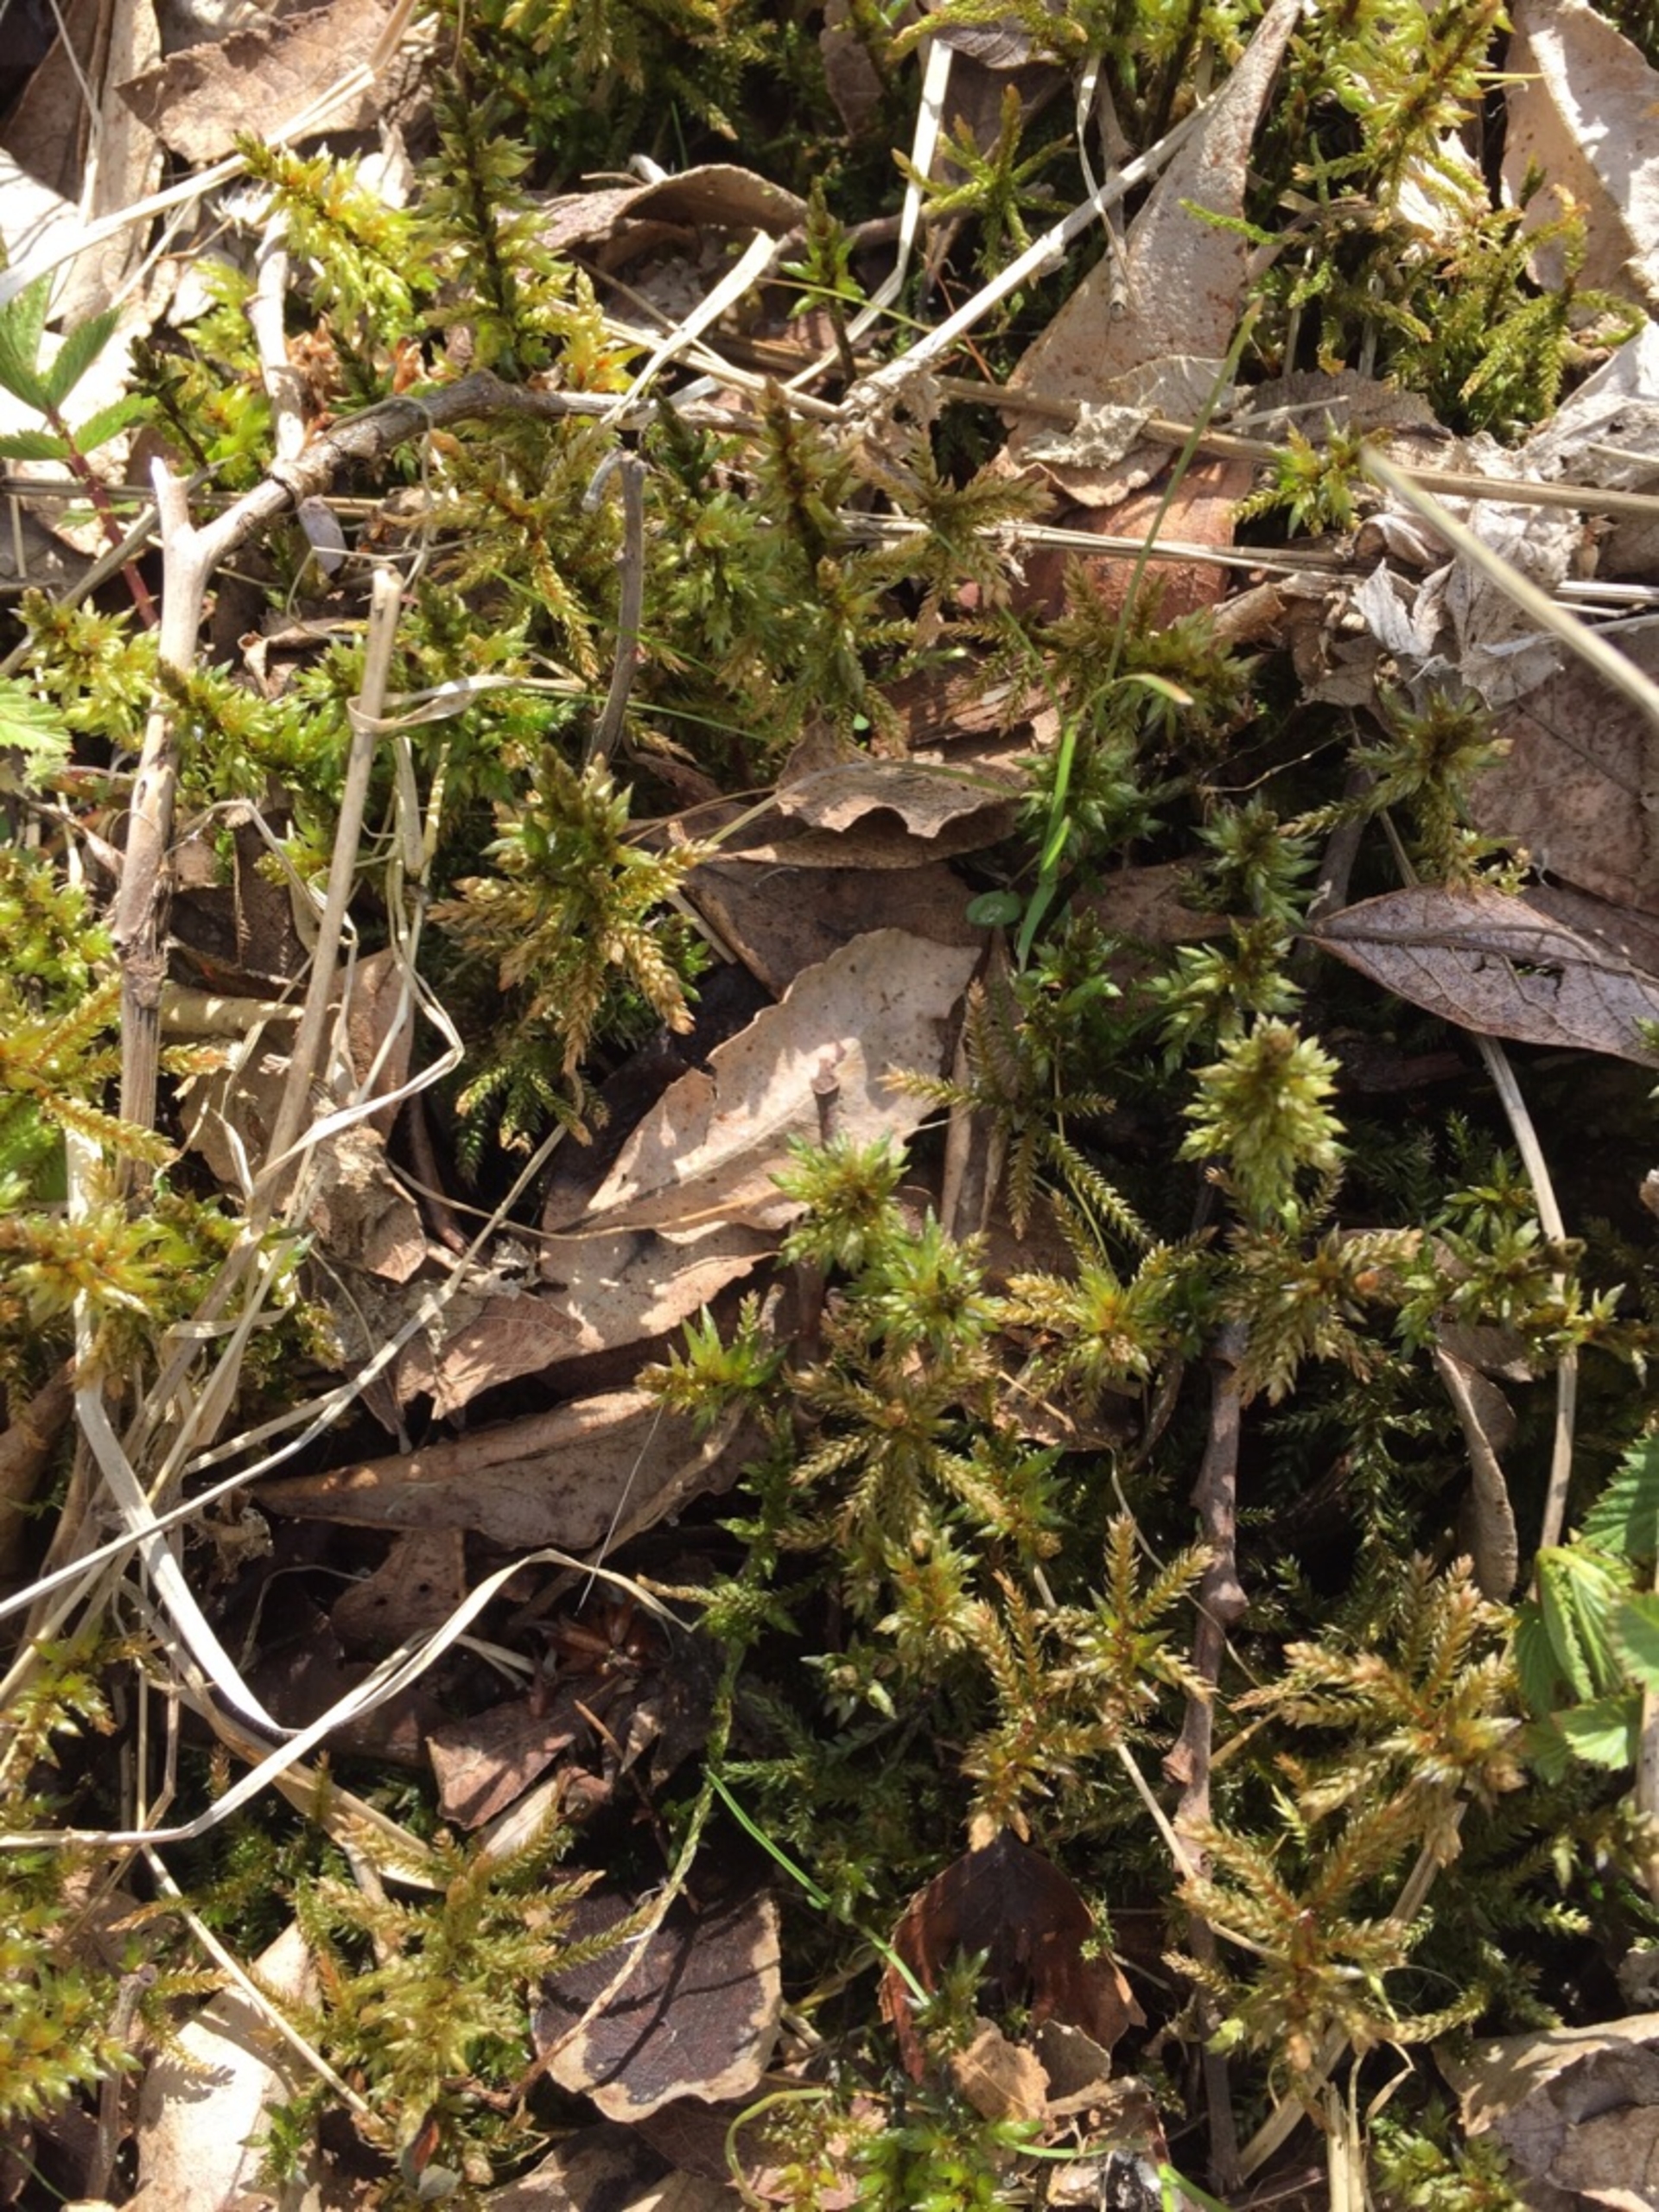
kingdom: Plantae
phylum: Bryophyta
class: Bryopsida
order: Hypnales
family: Climaciaceae
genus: Climacium
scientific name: Climacium dendroides
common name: Stor engkost
